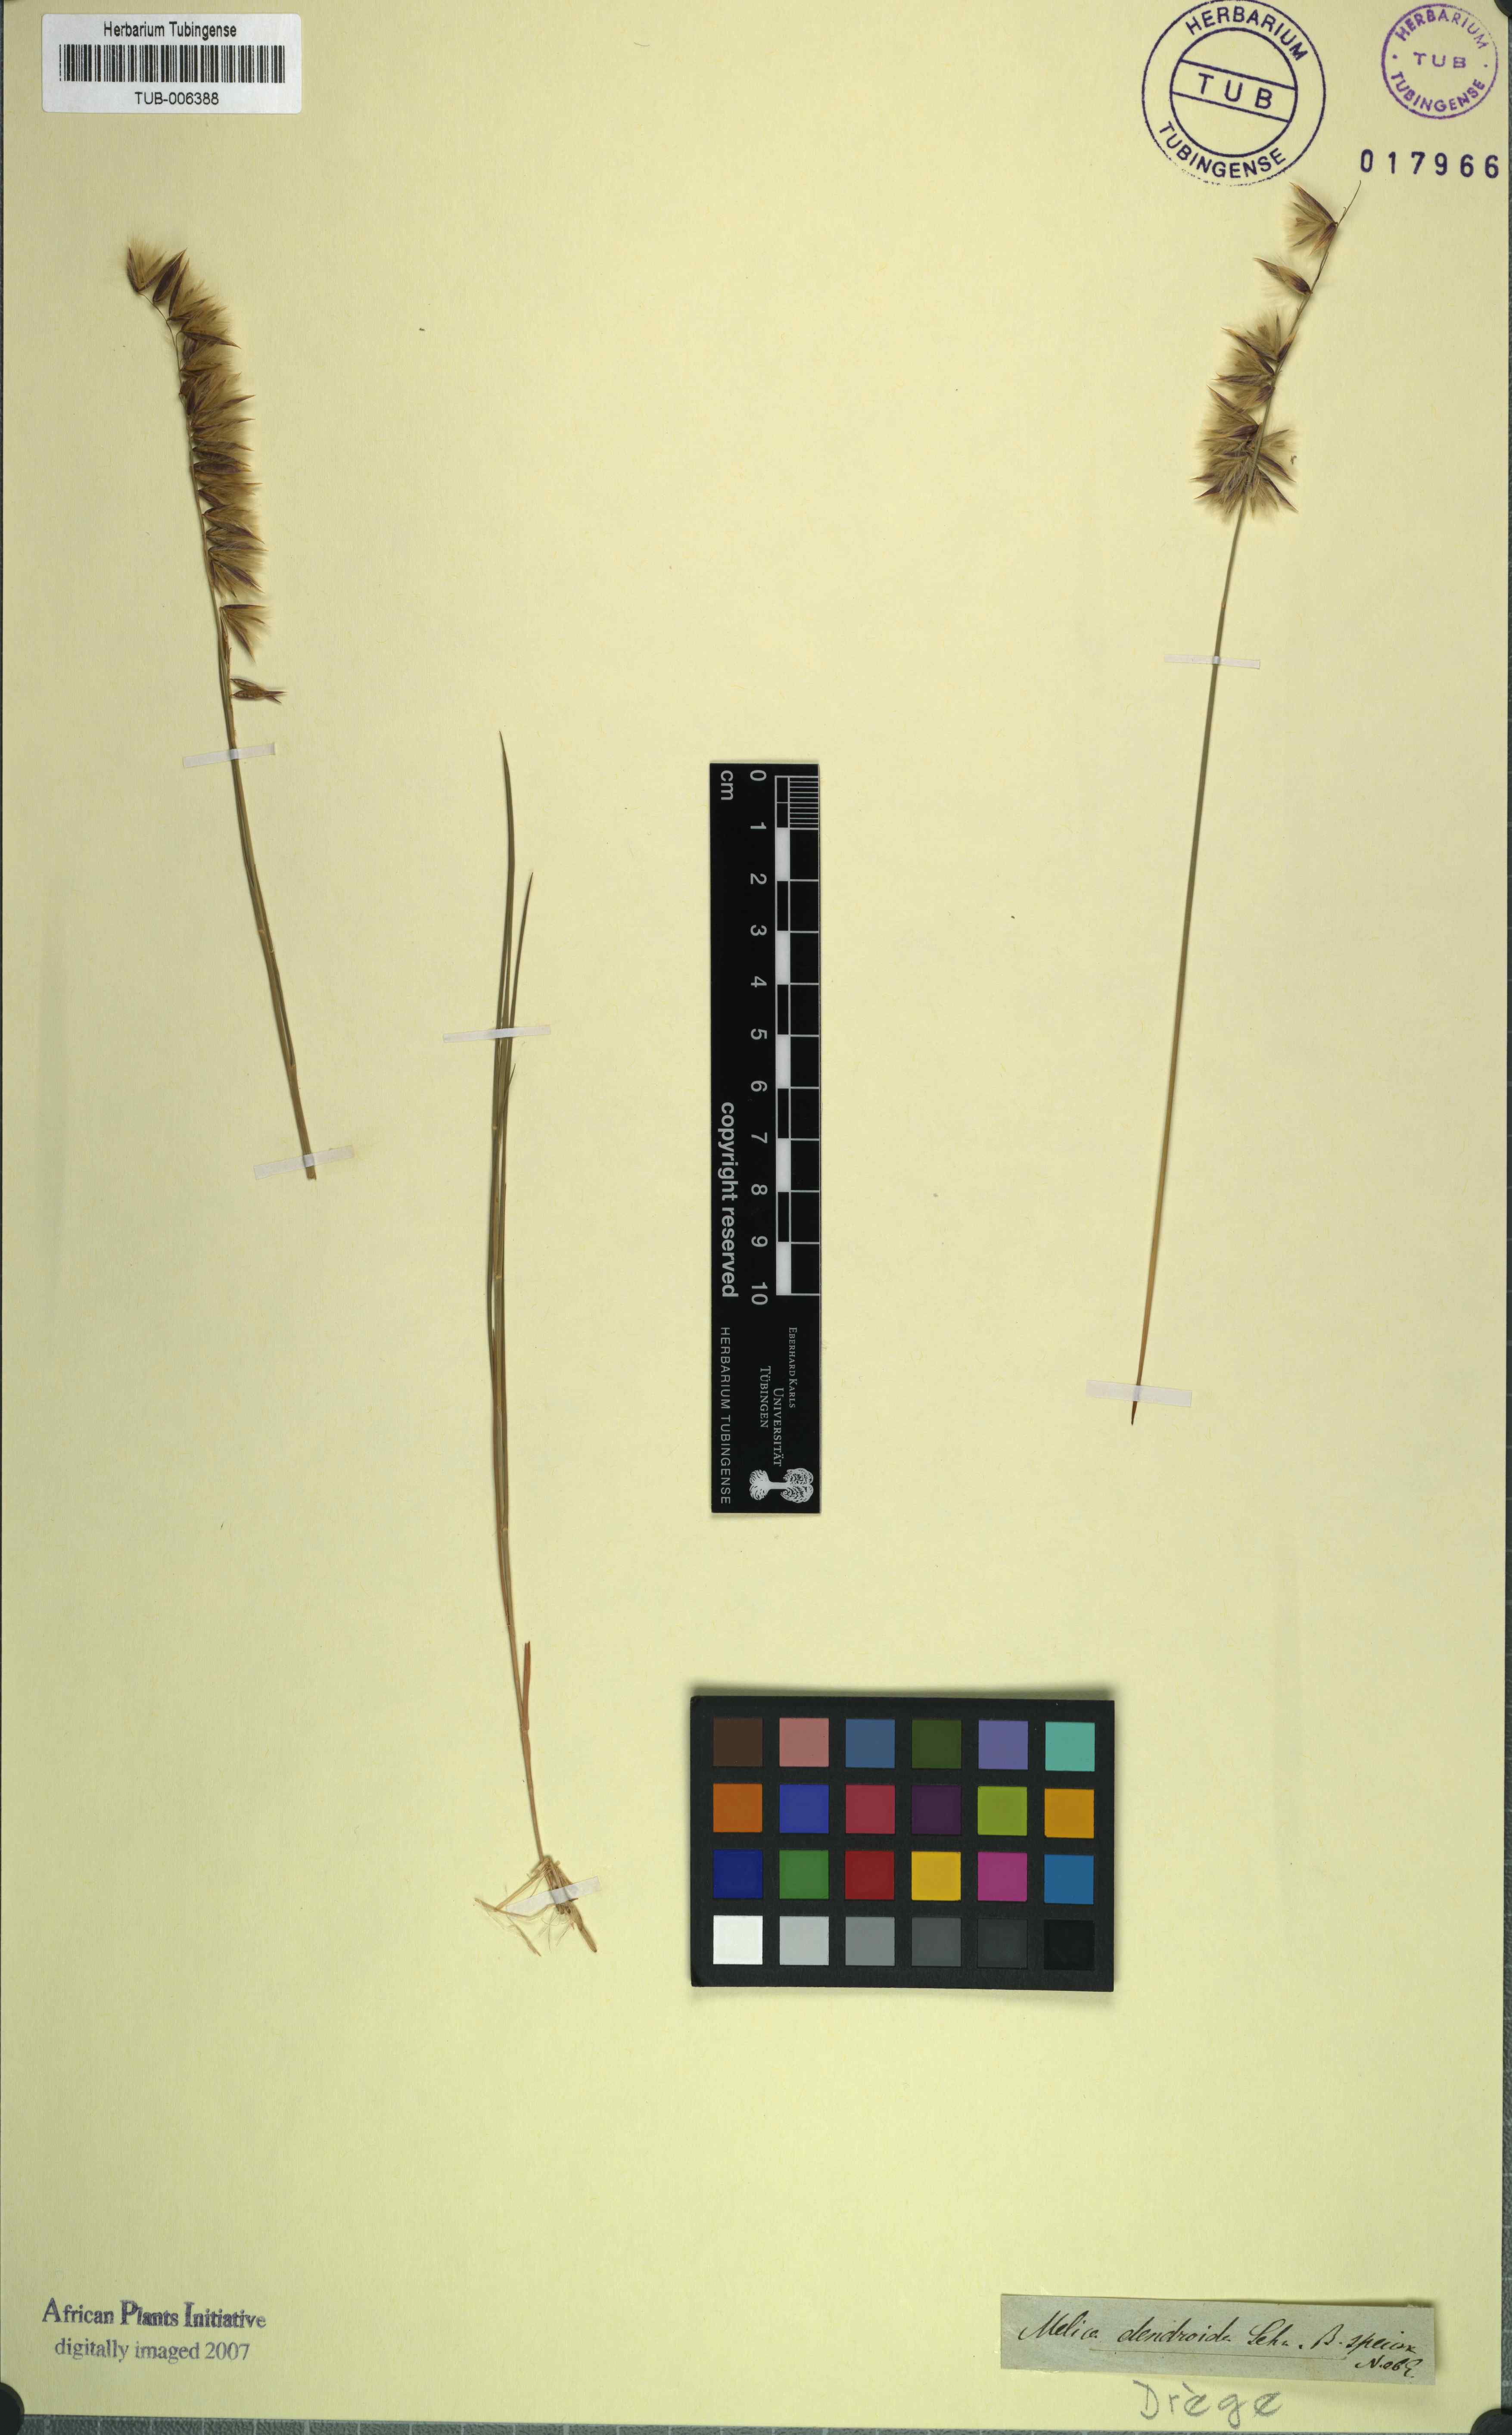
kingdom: Plantae
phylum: Tracheophyta
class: Liliopsida
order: Poales
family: Poaceae
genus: Melica
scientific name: Melica dendroides
